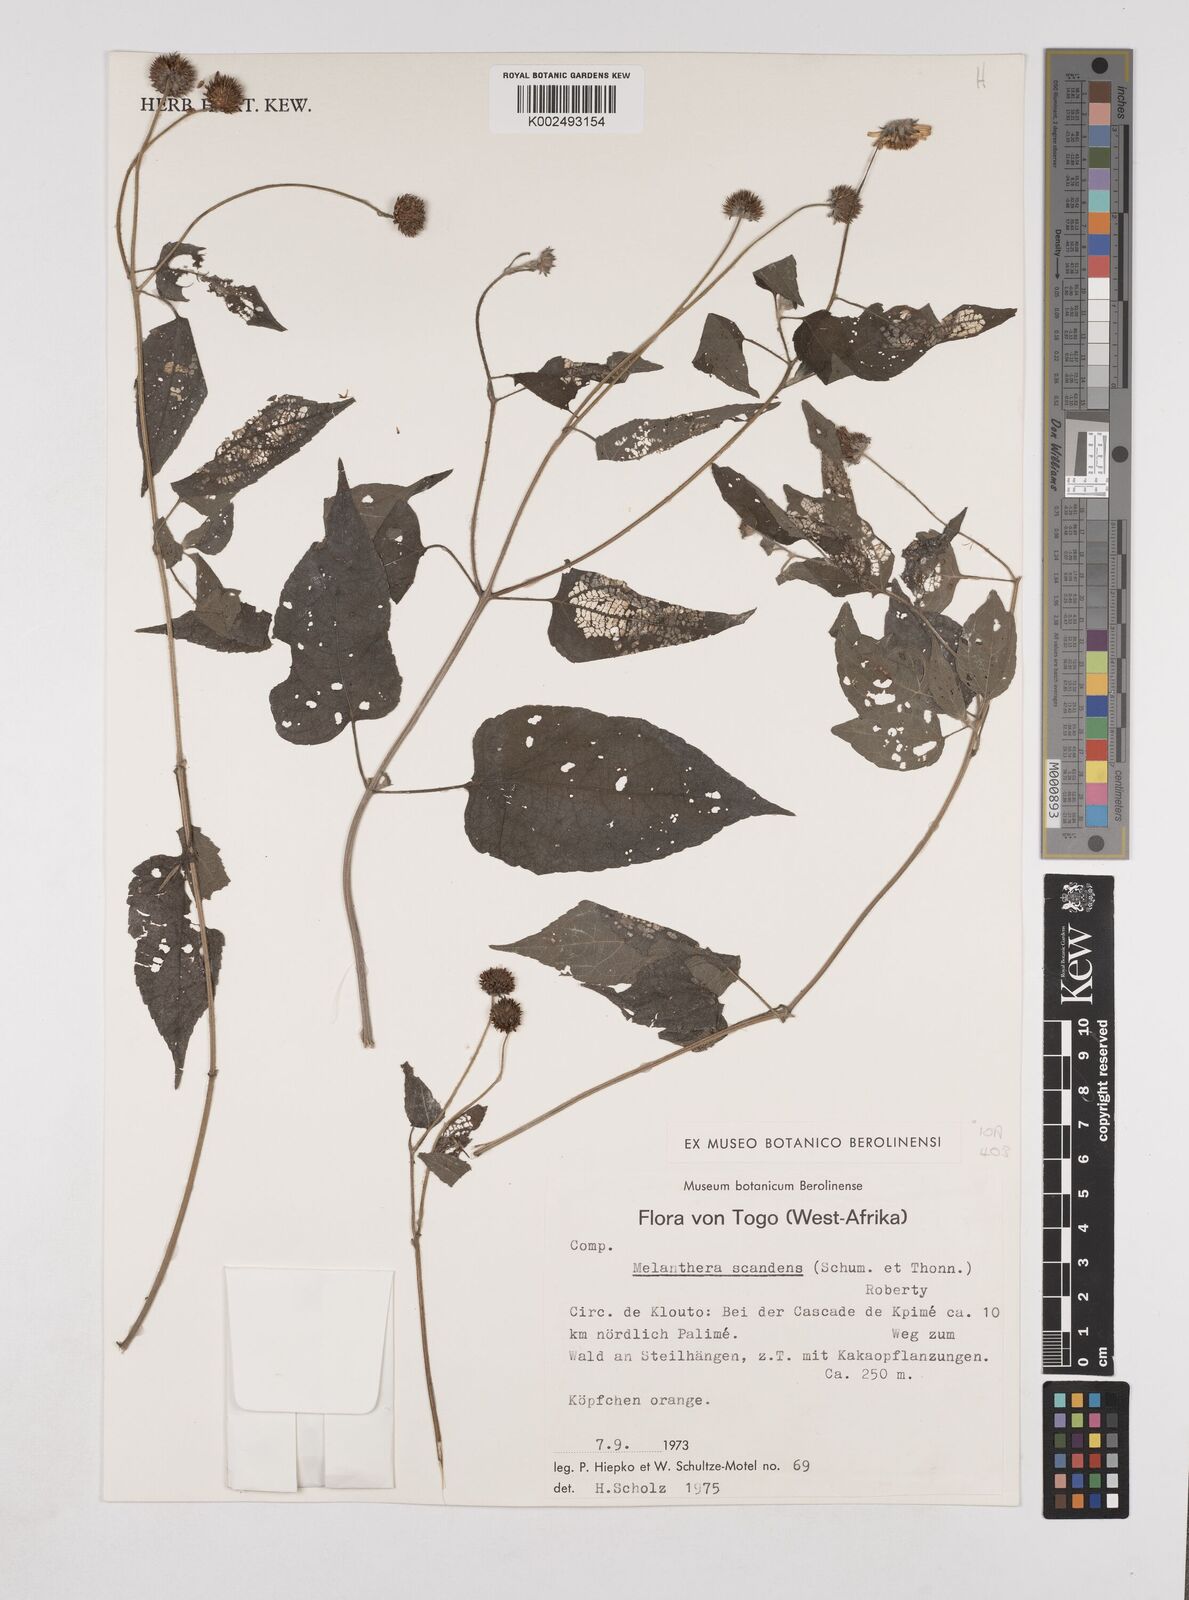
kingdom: Plantae
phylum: Tracheophyta
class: Magnoliopsida
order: Asterales
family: Asteraceae
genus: Lipotriche
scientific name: Lipotriche scandens
